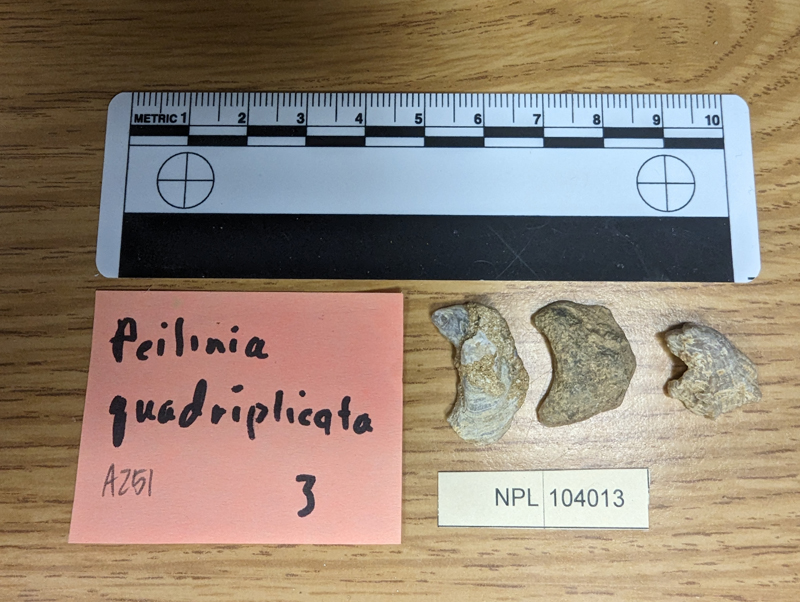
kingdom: Animalia
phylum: Mollusca
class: Bivalvia
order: Ostreida
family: Ostreidae
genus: Peilinia
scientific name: Peilinia Ostrea quadriplicata
